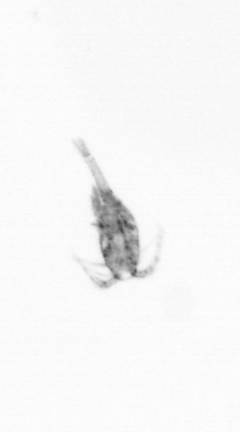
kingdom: Animalia
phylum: Arthropoda
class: Copepoda
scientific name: Copepoda
